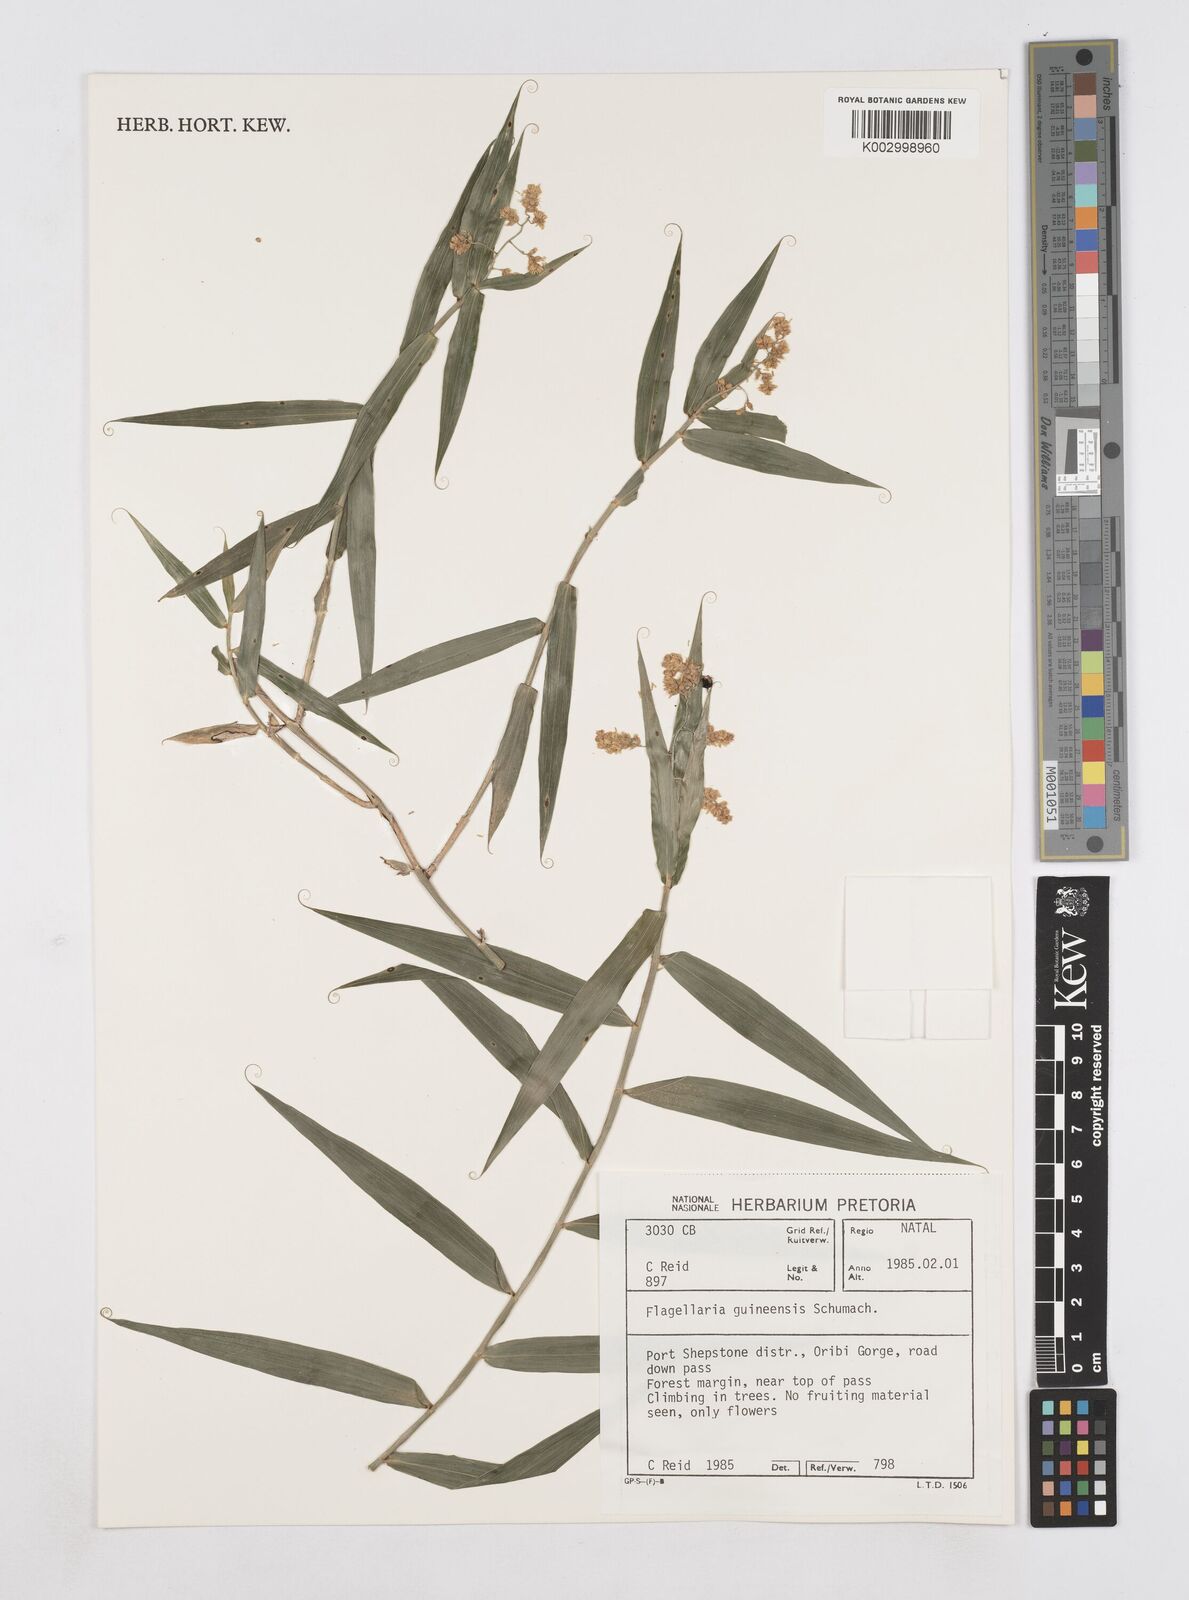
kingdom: Plantae
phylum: Tracheophyta
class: Liliopsida
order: Poales
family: Flagellariaceae
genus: Flagellaria
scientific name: Flagellaria guineensis
